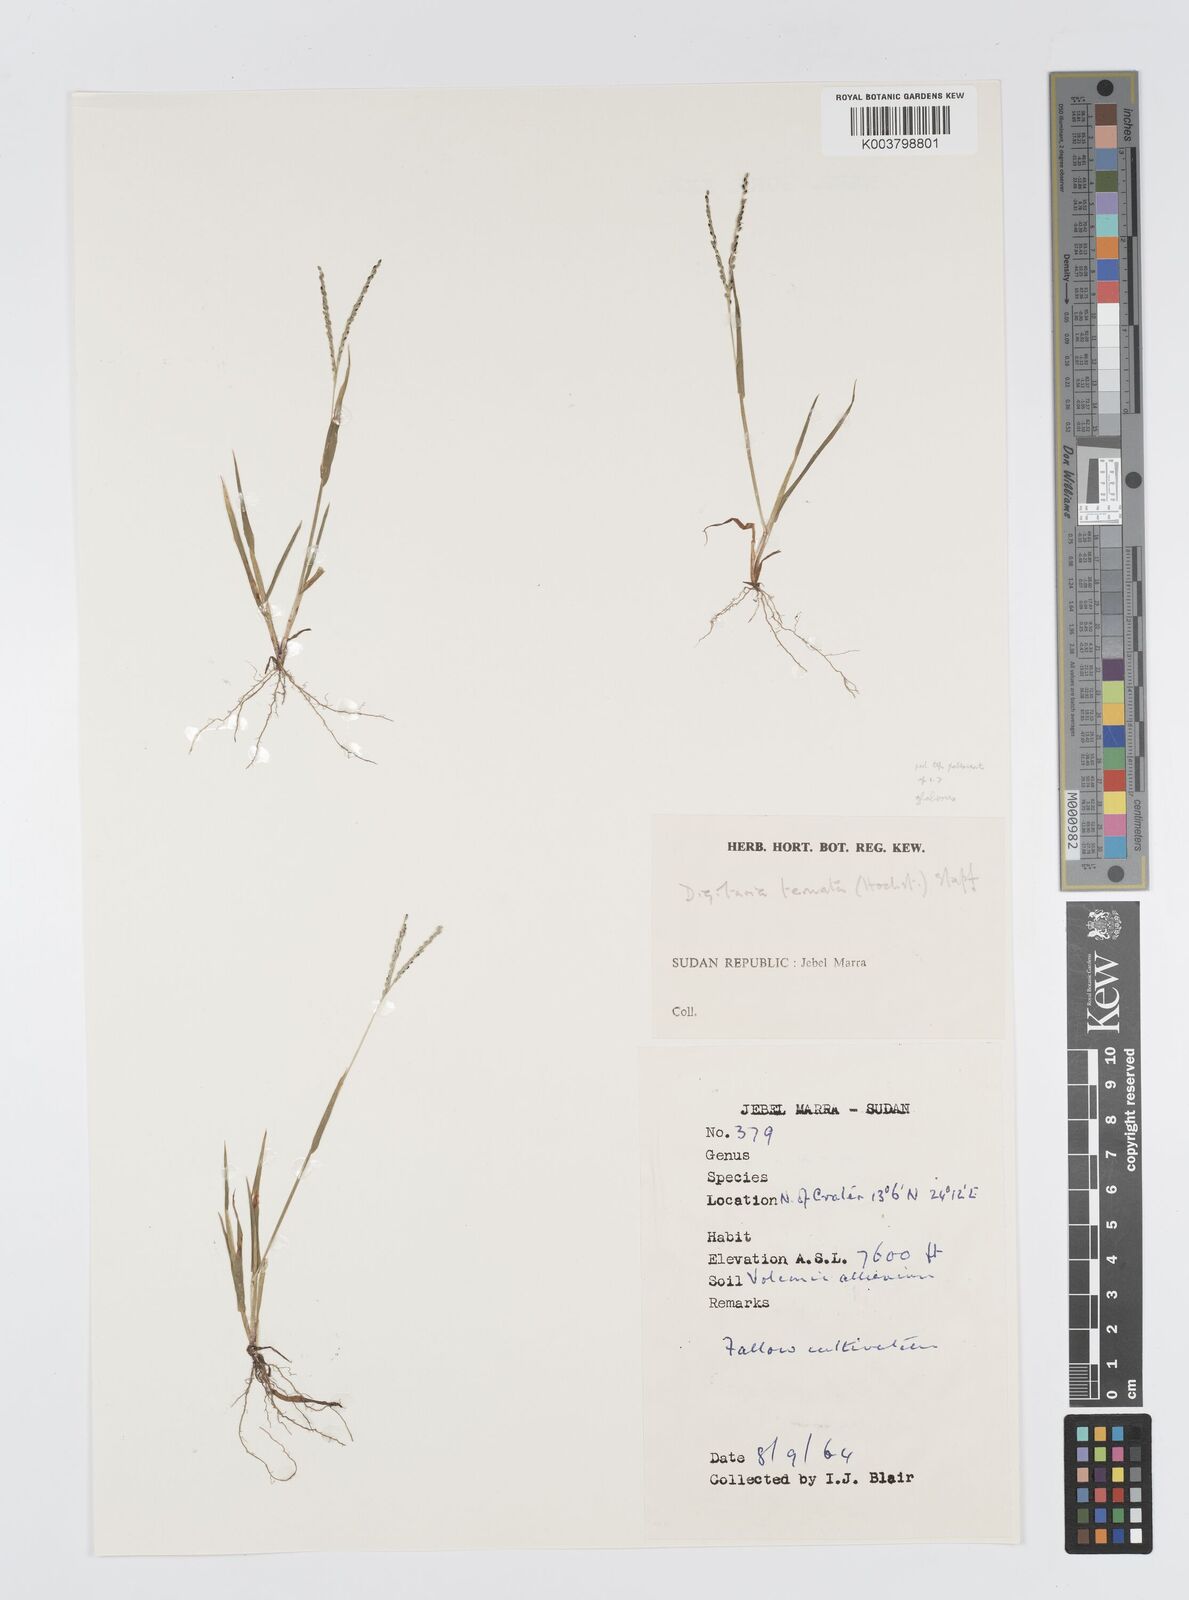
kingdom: Plantae
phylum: Tracheophyta
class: Liliopsida
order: Poales
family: Poaceae
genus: Digitaria
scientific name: Digitaria ternata
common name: Blackseed crabgrass
